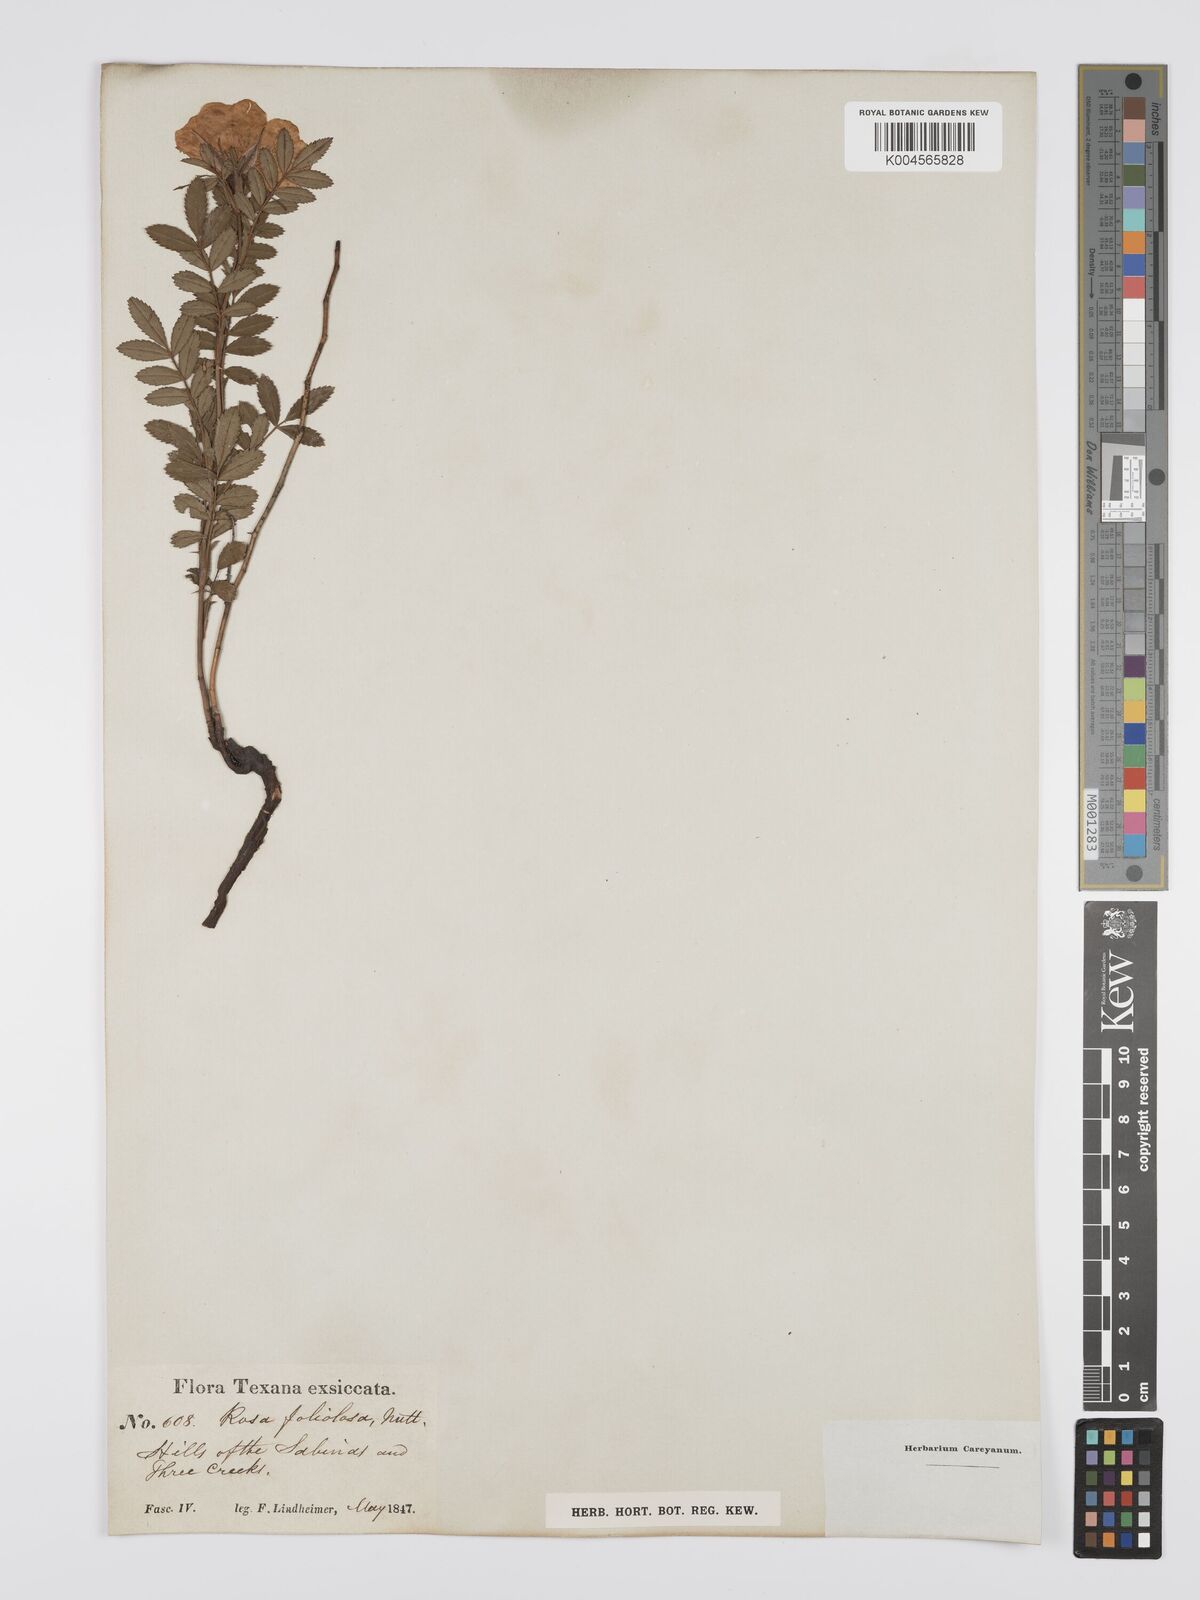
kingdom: Plantae
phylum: Tracheophyta
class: Magnoliopsida
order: Rosales
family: Rosaceae
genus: Rosa
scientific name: Rosa foliolosa
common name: White prairie rose
